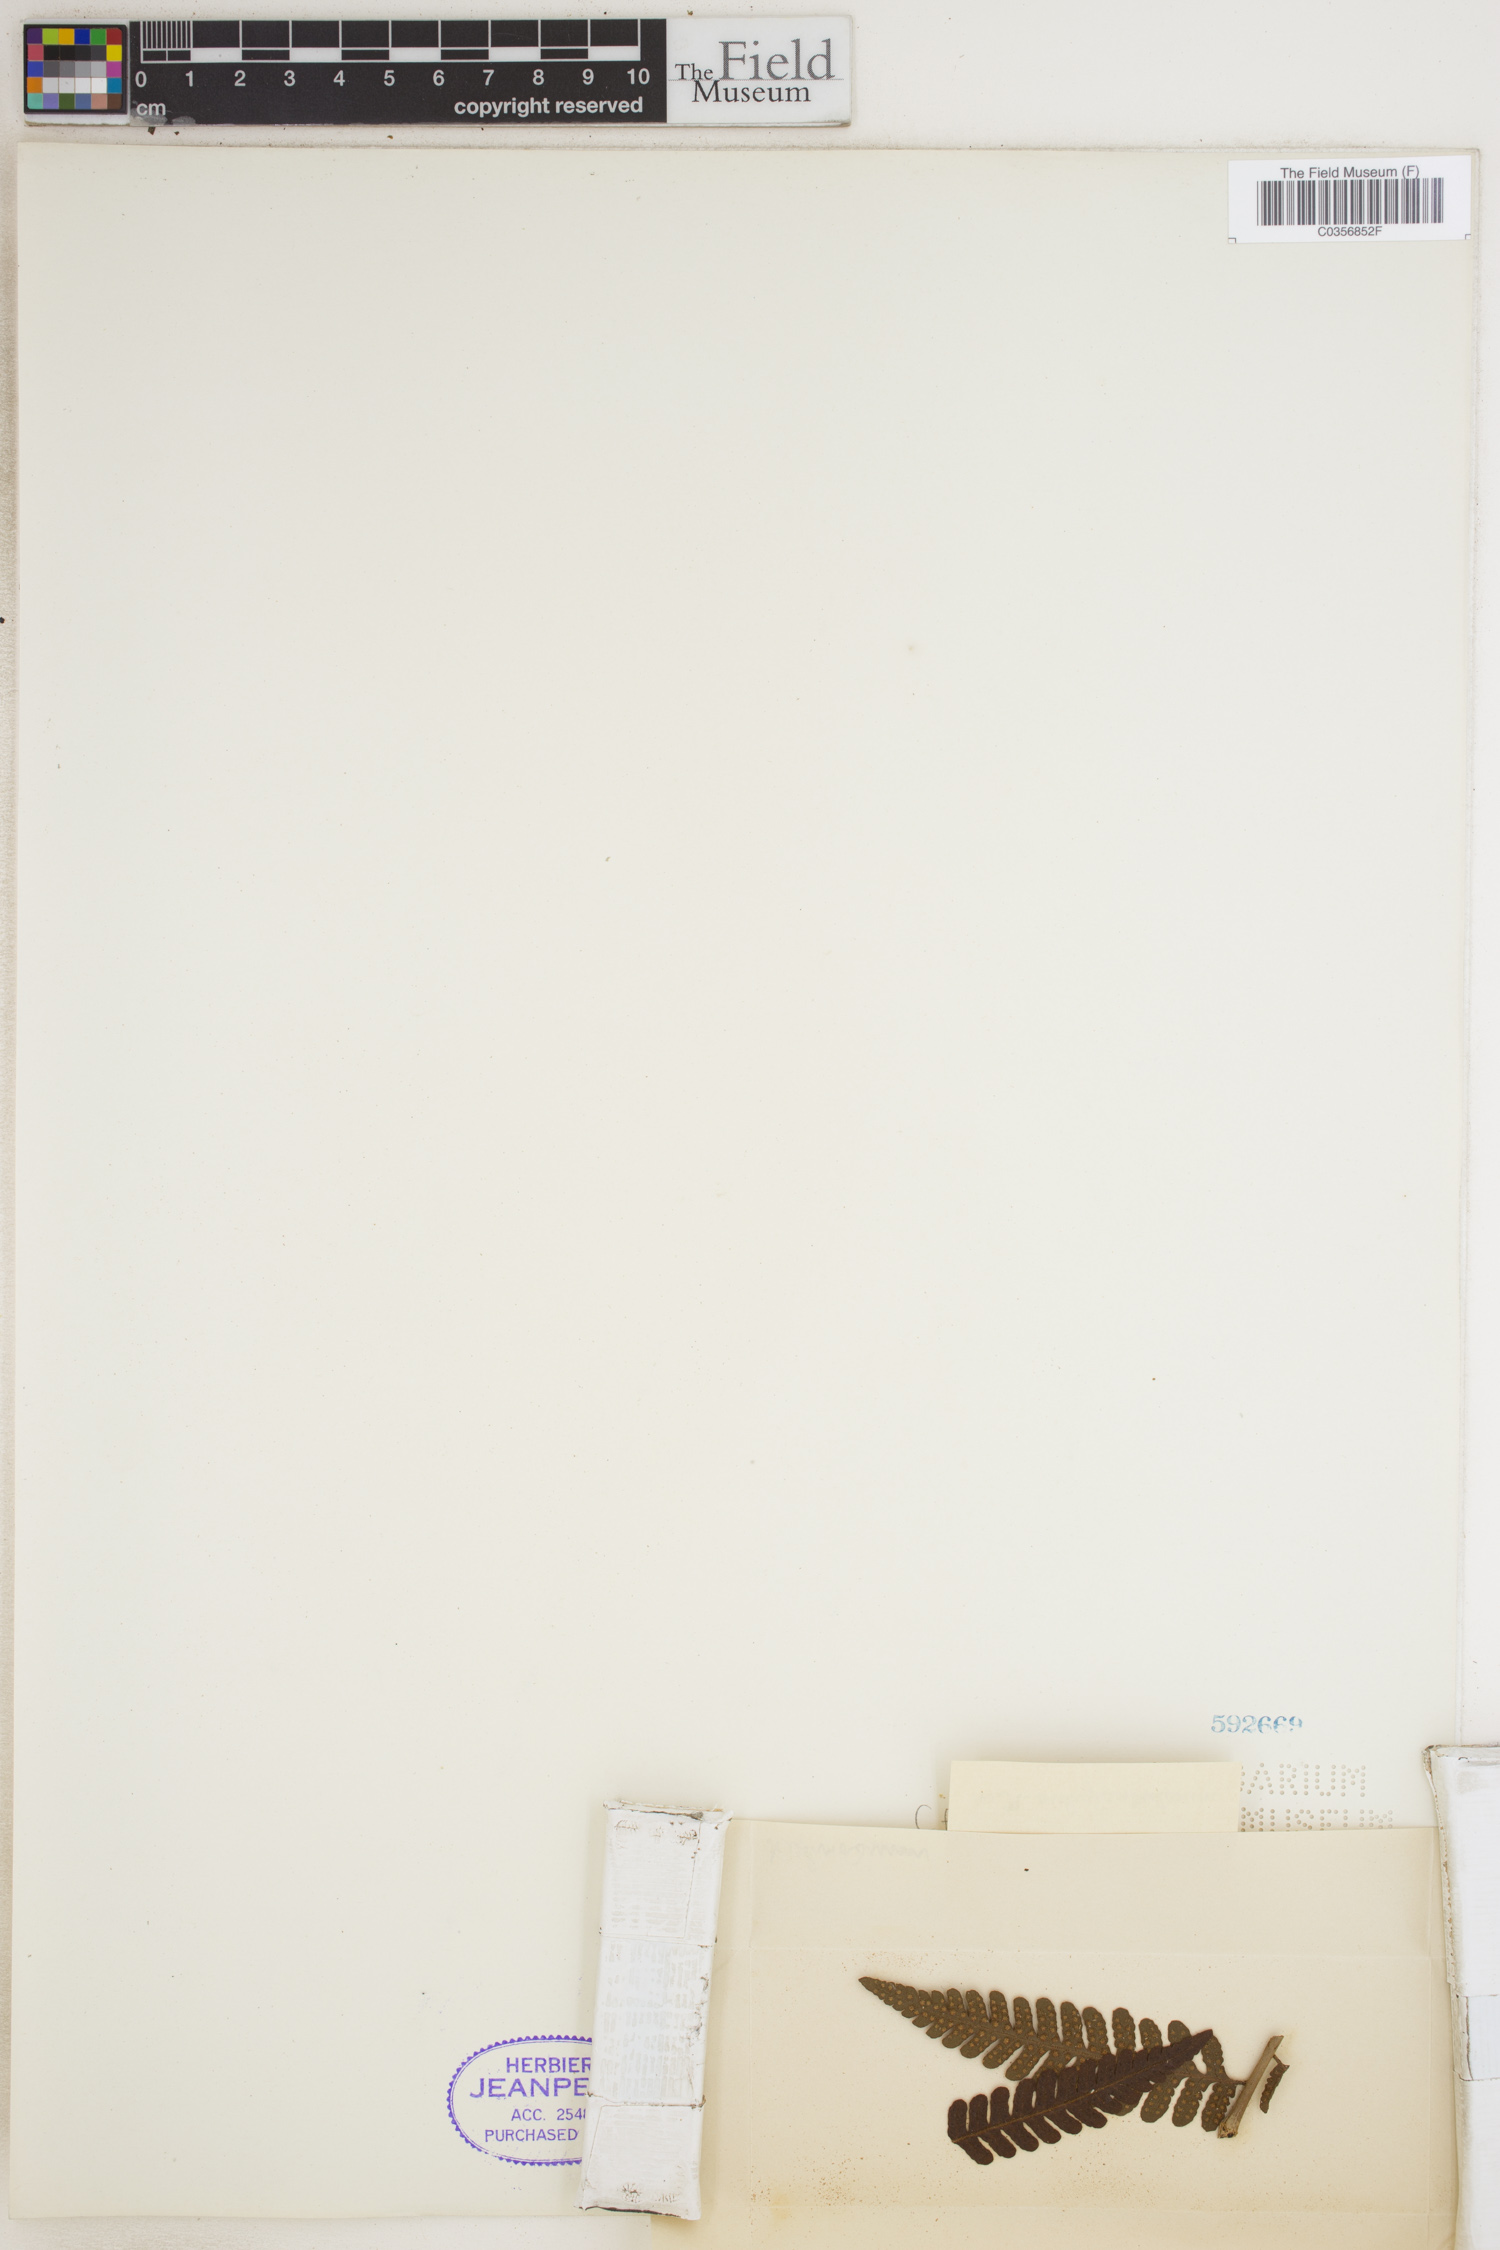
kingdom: Plantae
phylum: Tracheophyta
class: Polypodiopsida
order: Polypodiales
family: Dryopteridaceae
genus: Ctenitis
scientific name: Ctenitis
